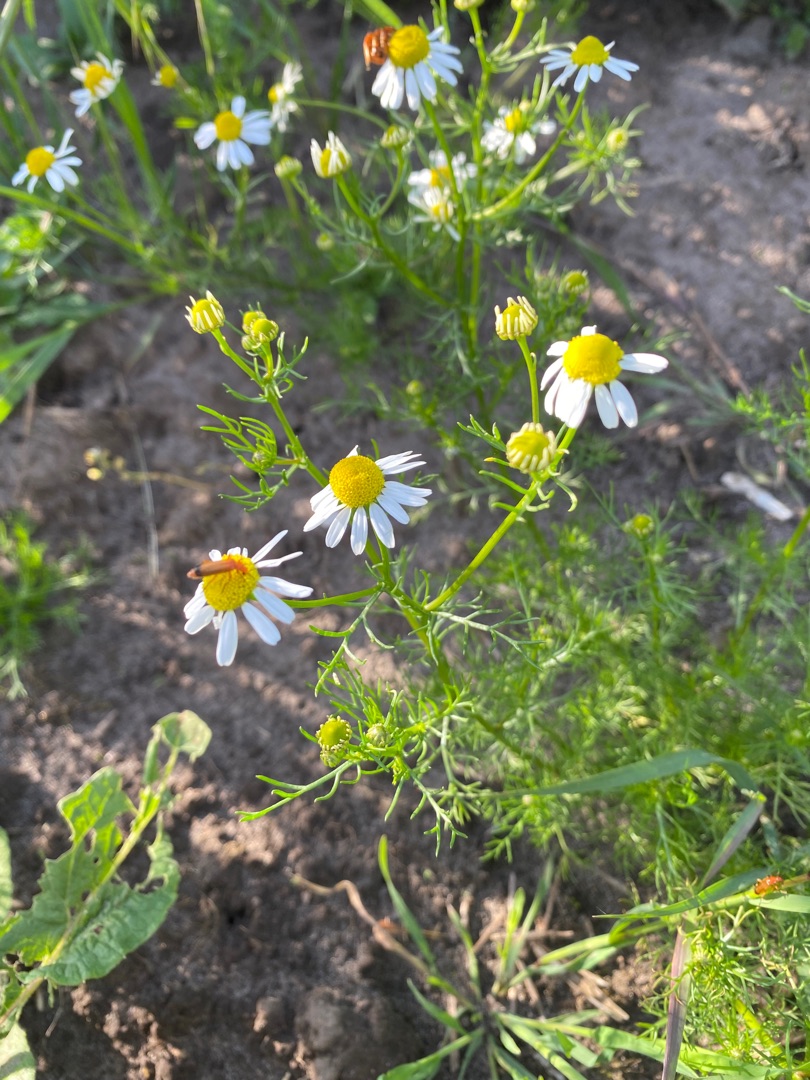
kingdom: Plantae
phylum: Tracheophyta
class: Magnoliopsida
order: Asterales
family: Asteraceae
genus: Matricaria
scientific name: Matricaria chamomilla
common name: Vellugtende kamille
